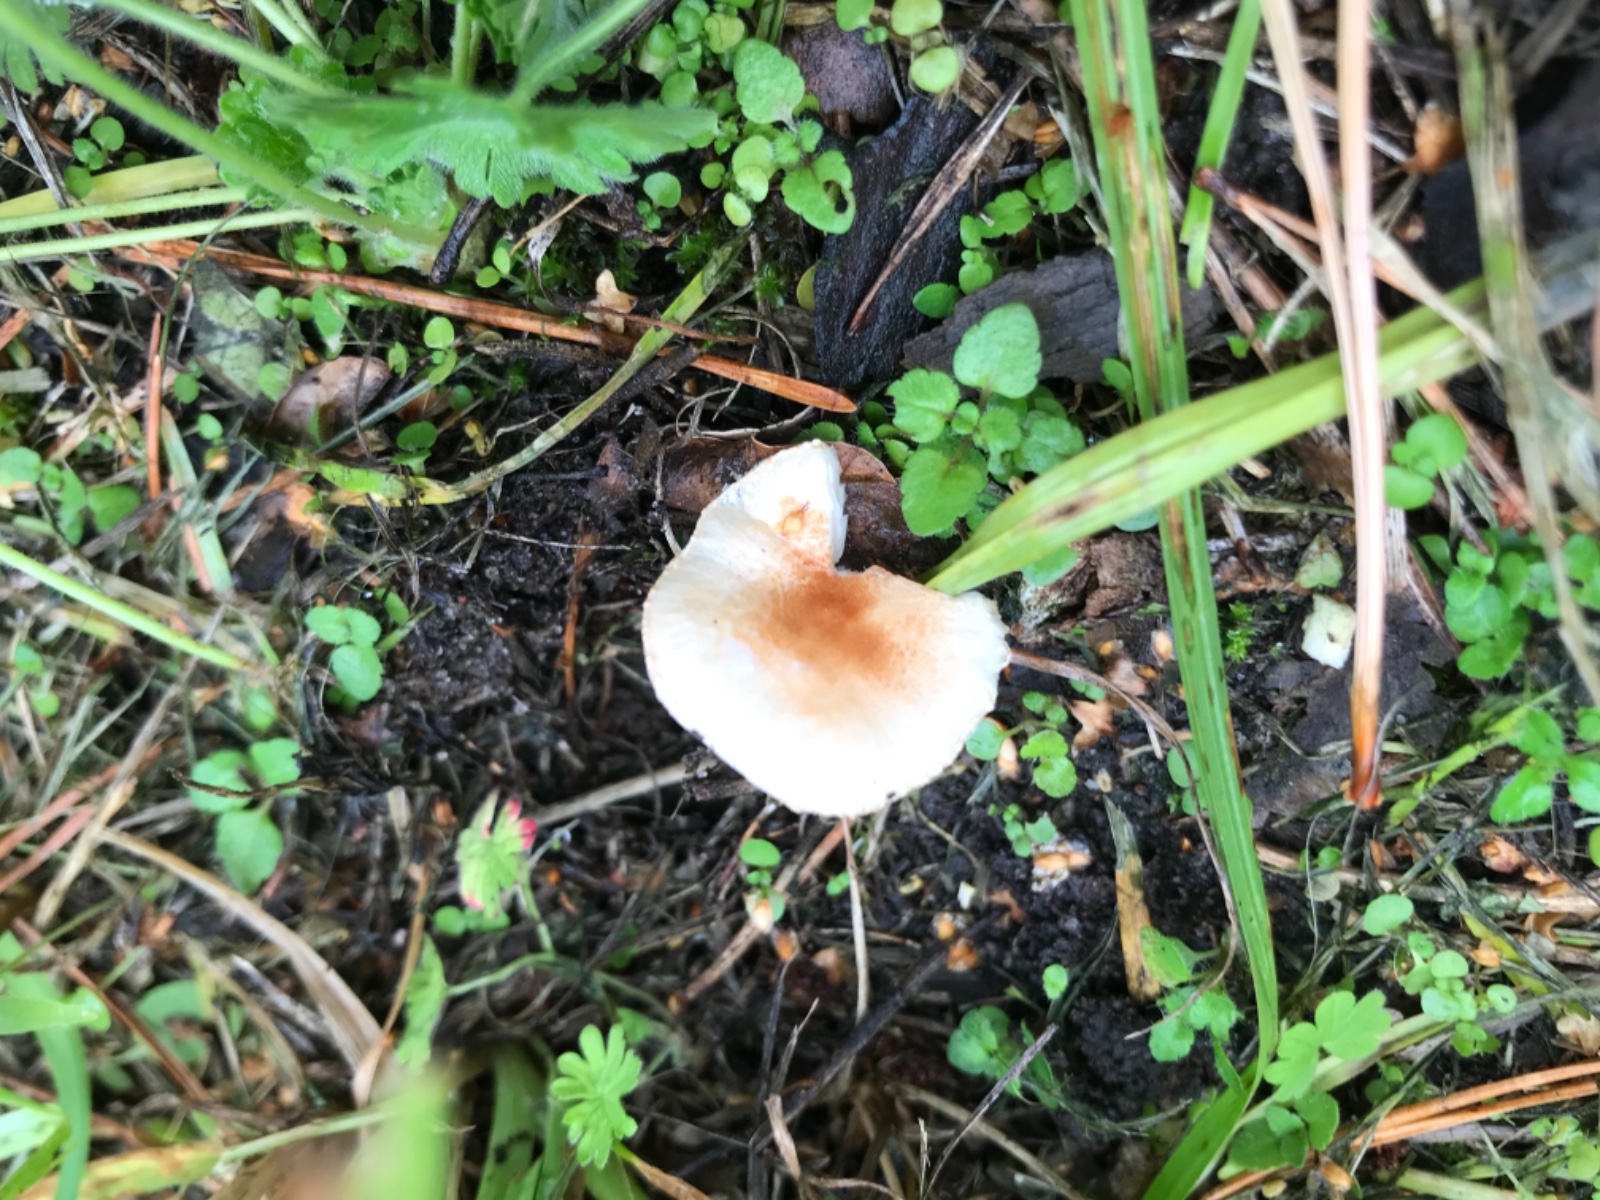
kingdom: Fungi
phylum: Basidiomycota
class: Agaricomycetes
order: Agaricales
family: Agaricaceae
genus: Lepiota
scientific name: Lepiota
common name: parasolhat
